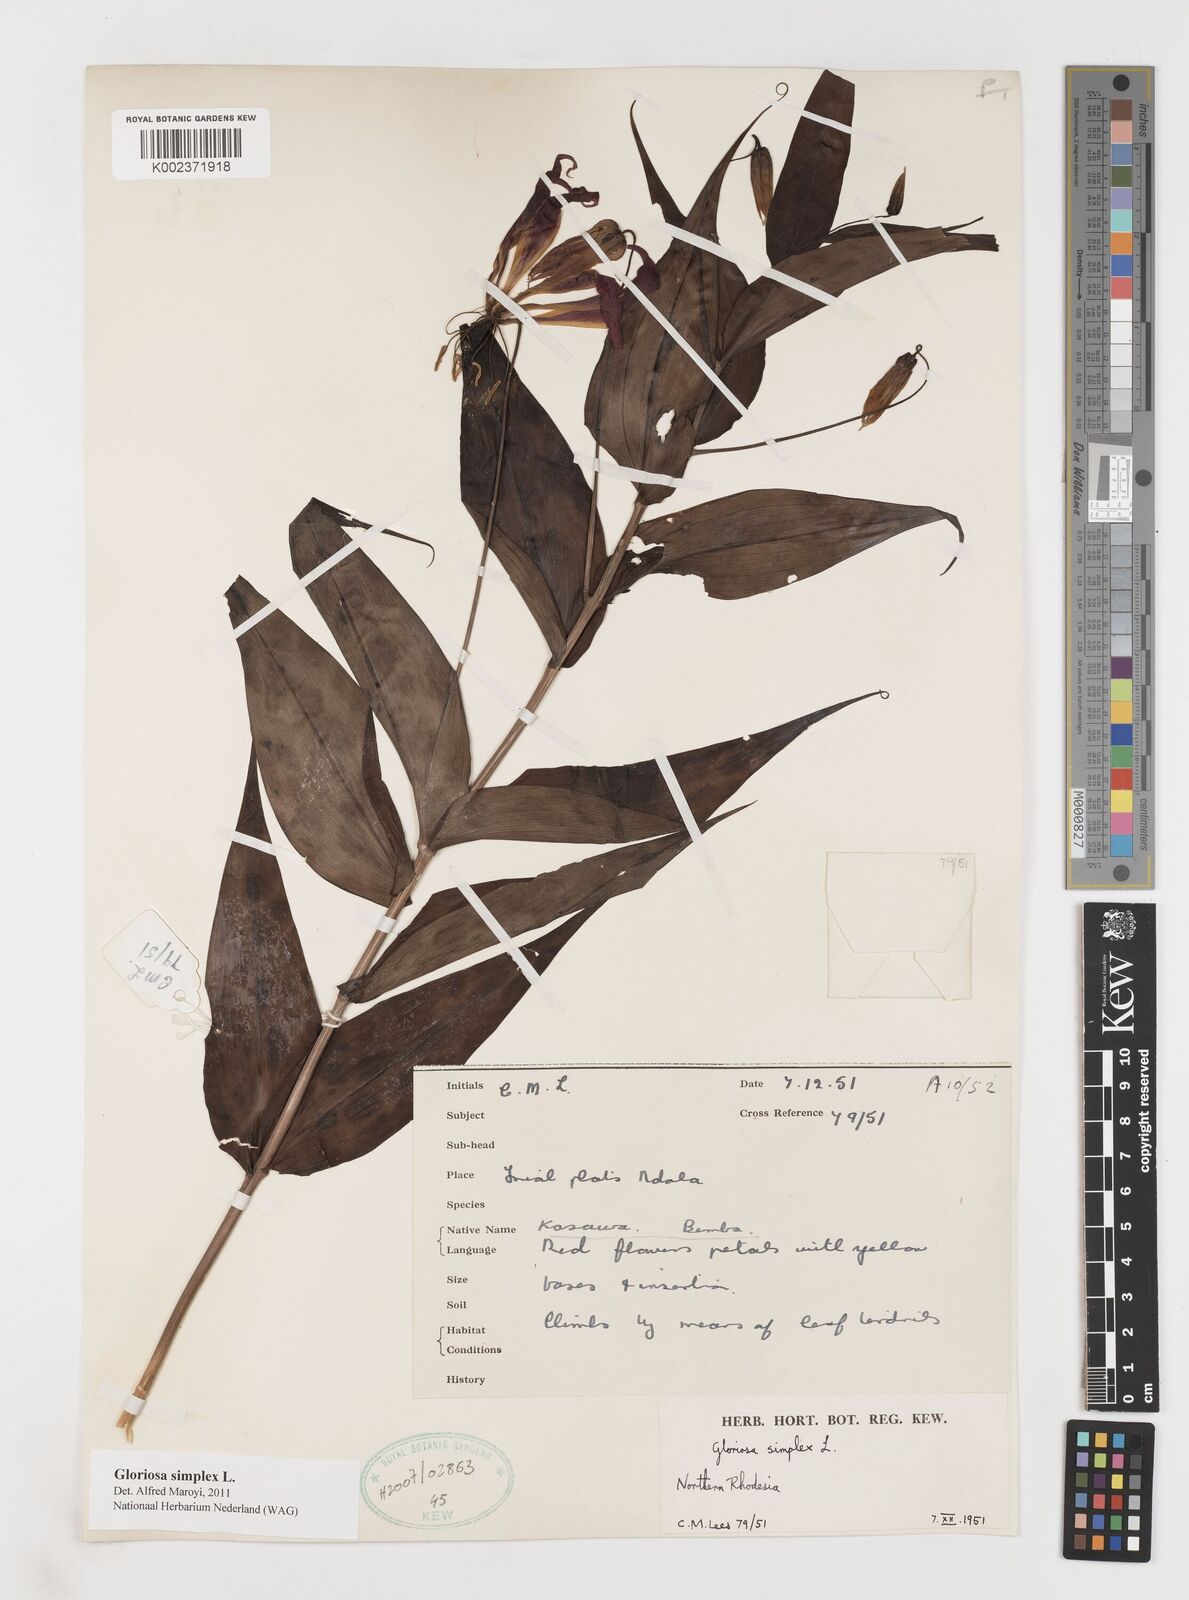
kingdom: Plantae
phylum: Tracheophyta
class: Liliopsida
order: Liliales
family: Colchicaceae
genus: Gloriosa
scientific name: Gloriosa simplex
